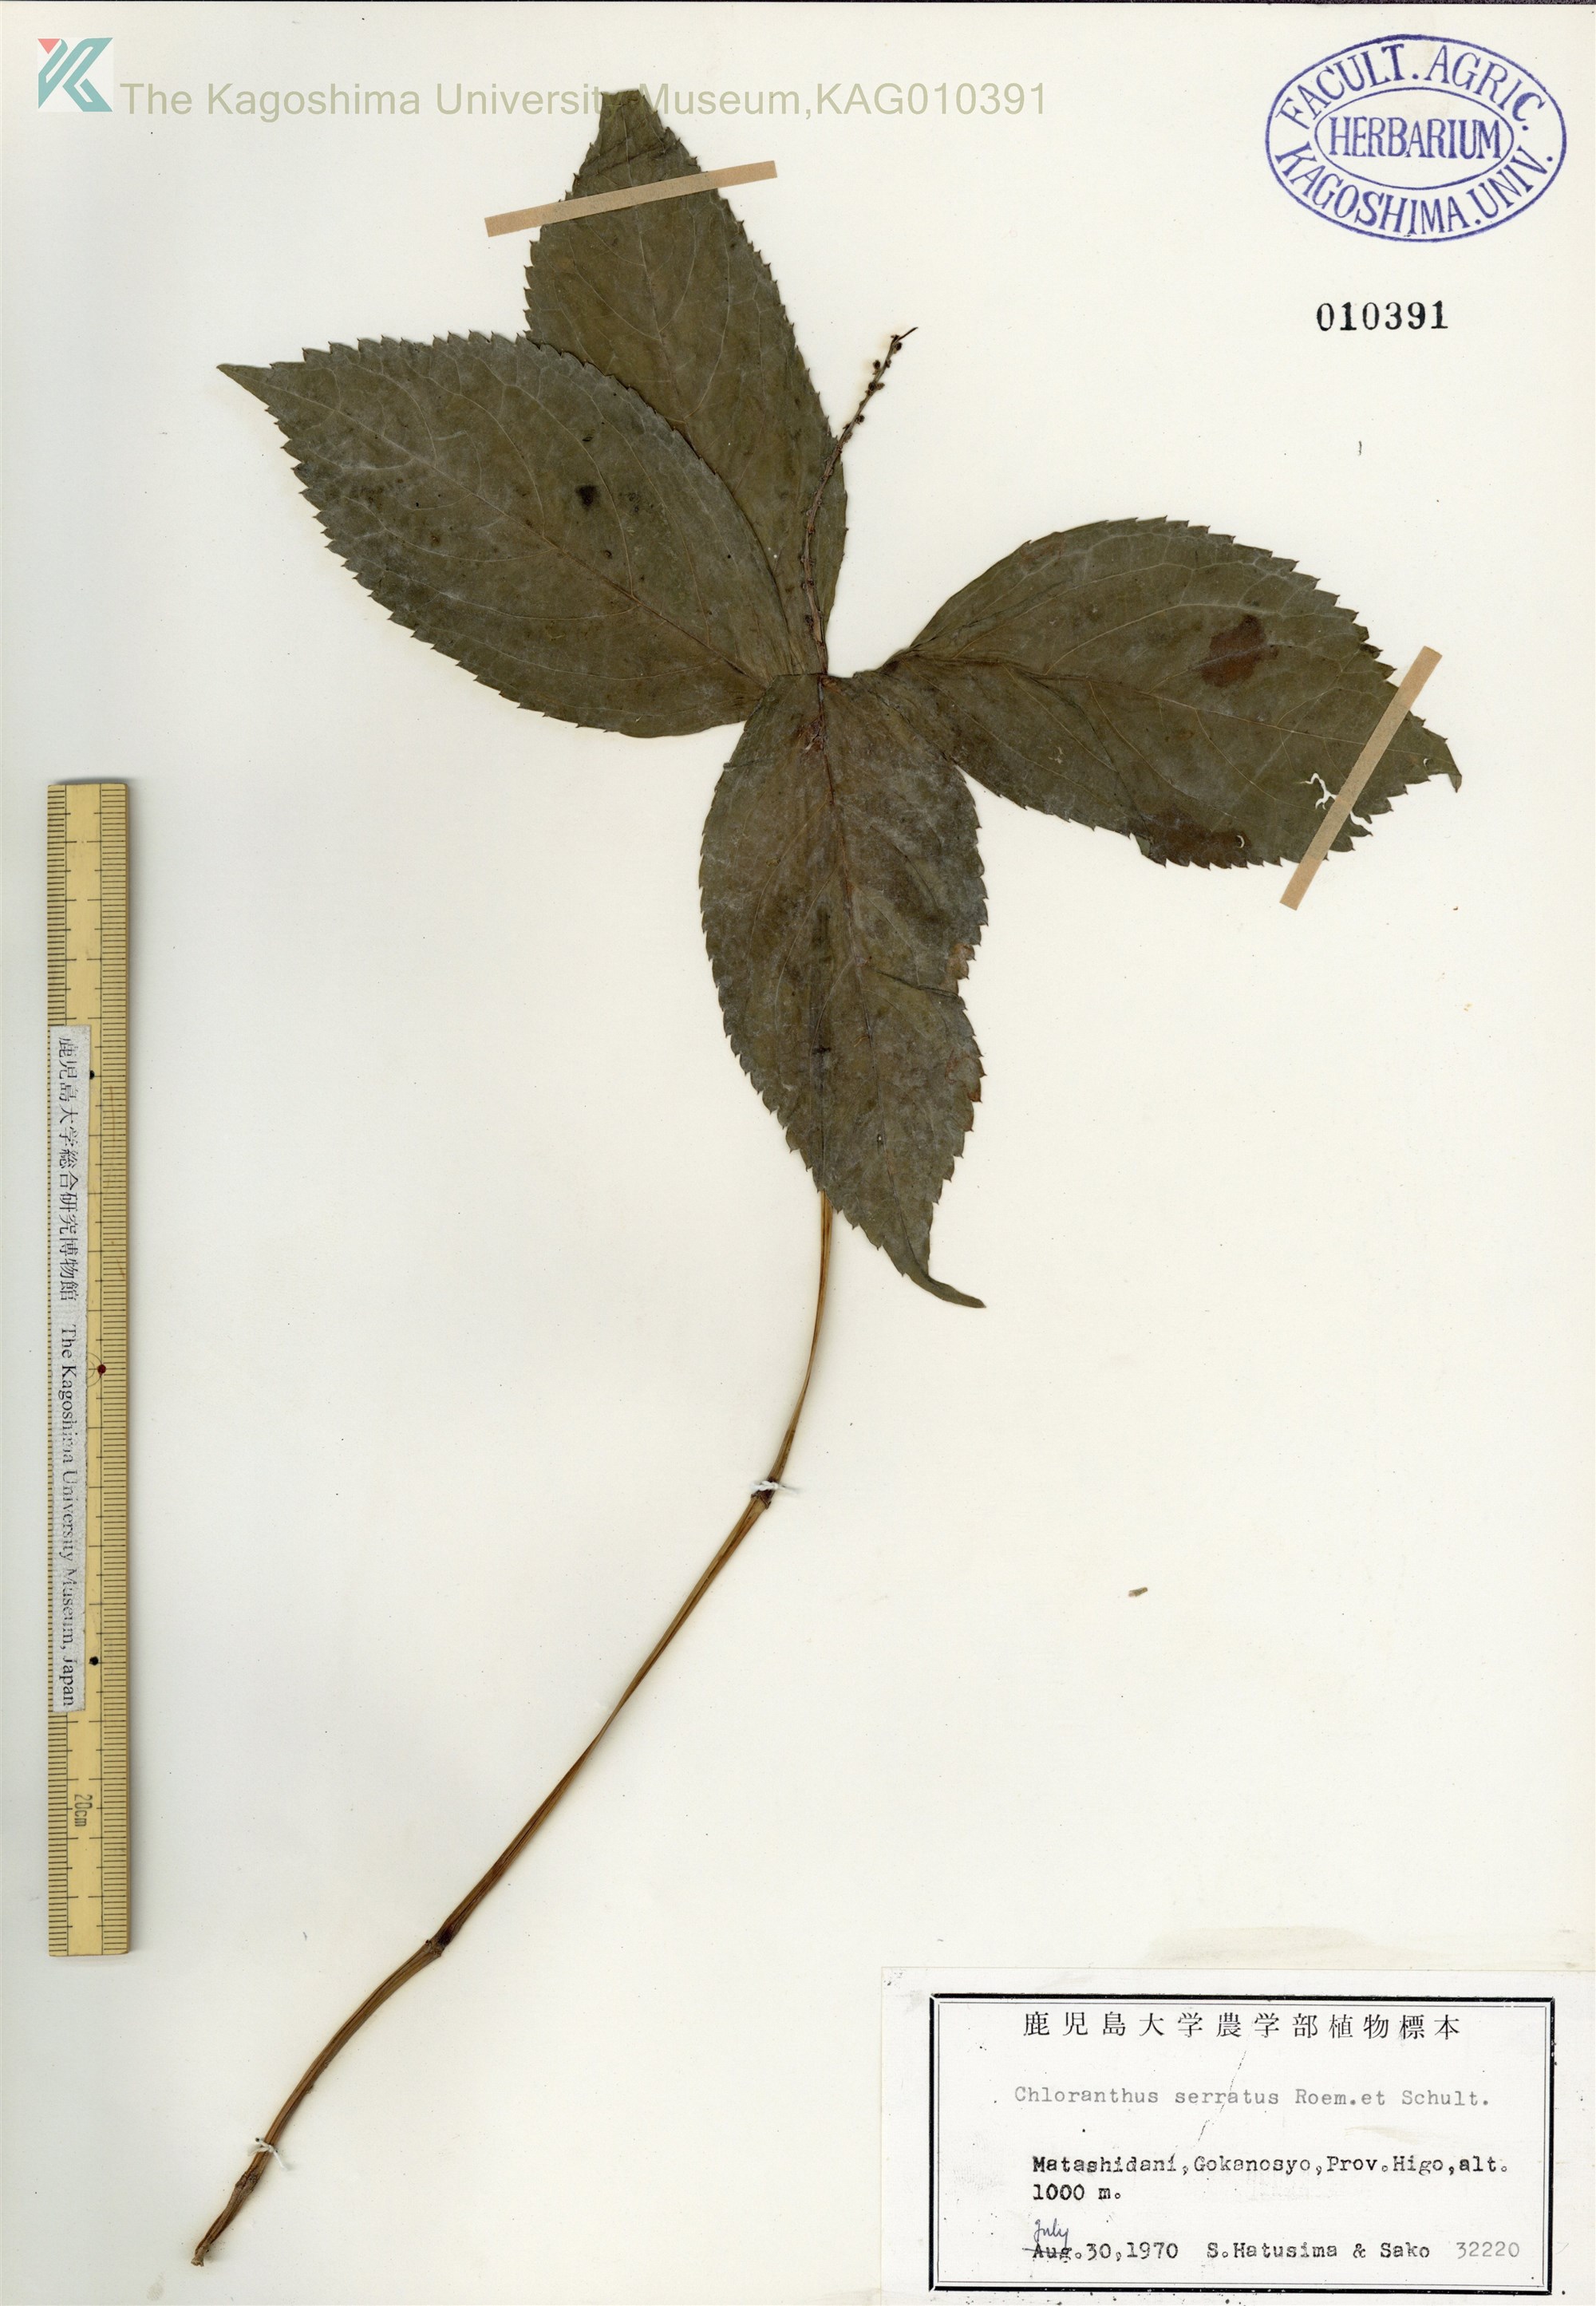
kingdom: Plantae
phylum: Tracheophyta
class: Magnoliopsida
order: Chloranthales
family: Chloranthaceae
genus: Chloranthus
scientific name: Chloranthus serratus
